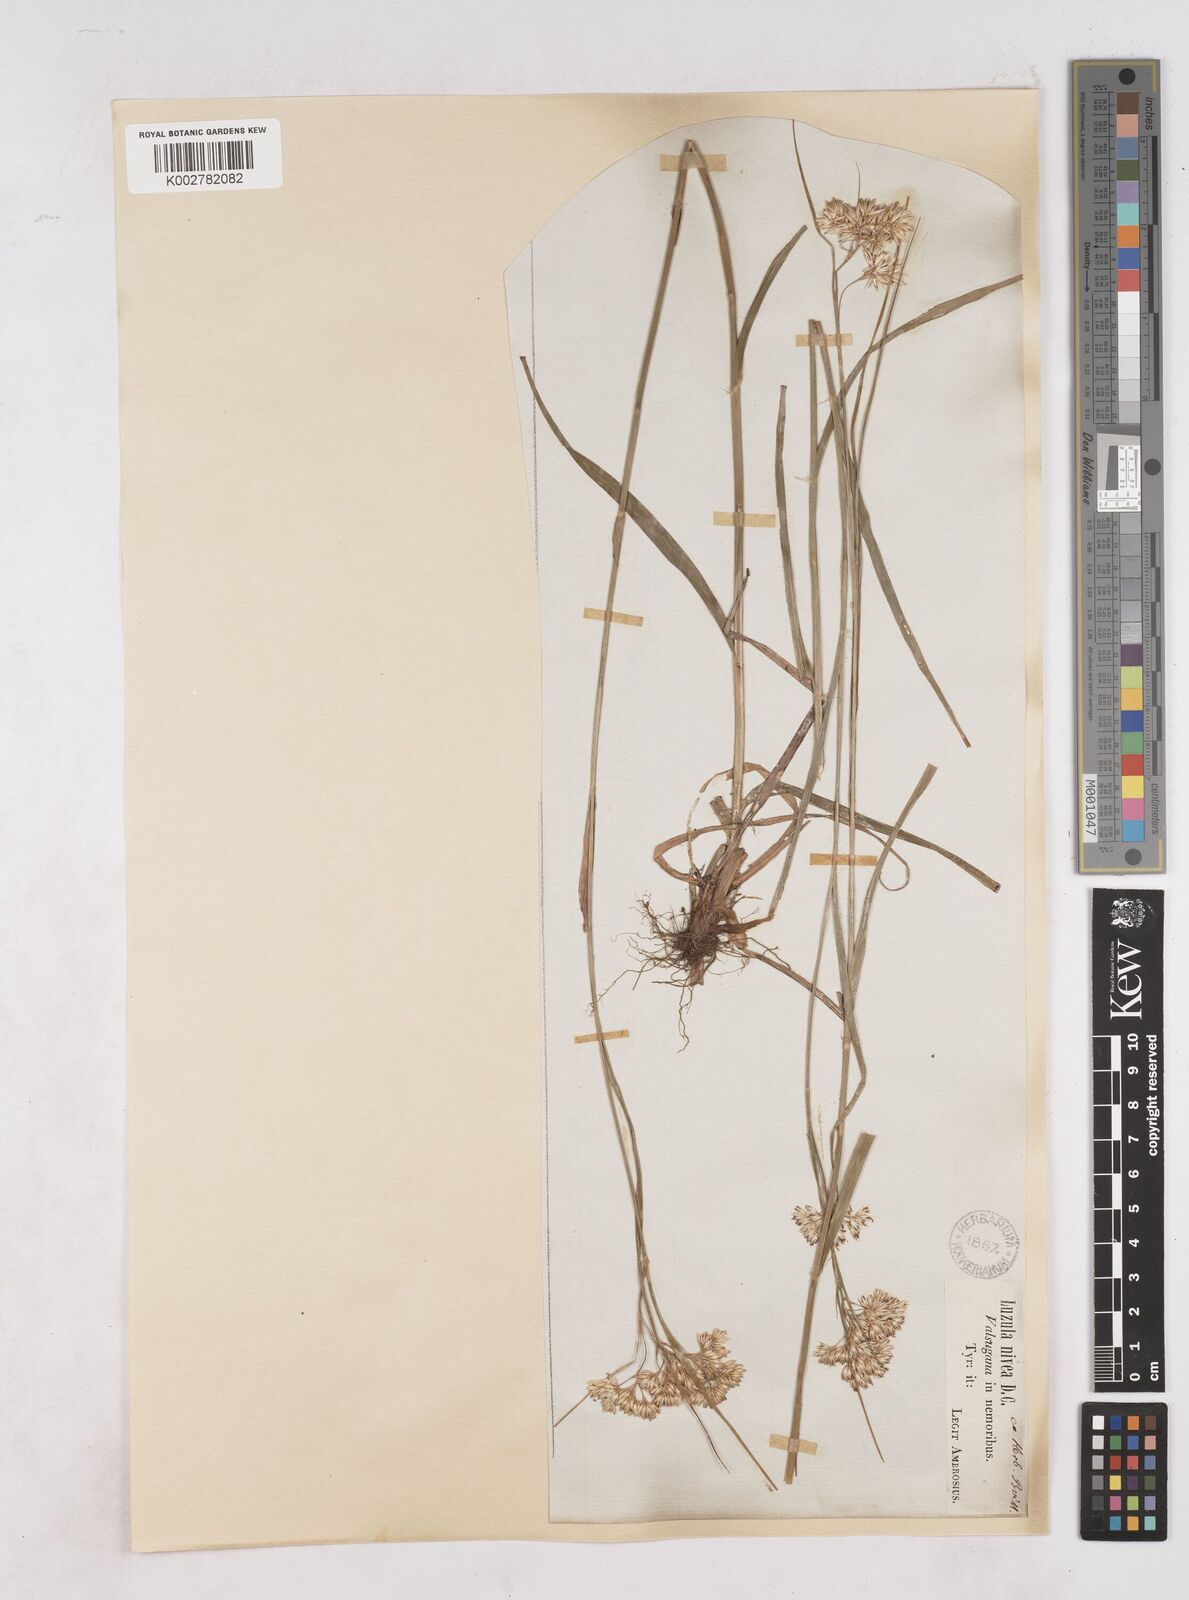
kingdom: Plantae
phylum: Tracheophyta
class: Liliopsida
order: Poales
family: Juncaceae
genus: Luzula
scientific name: Luzula nivea
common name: Snow-white wood-rush
